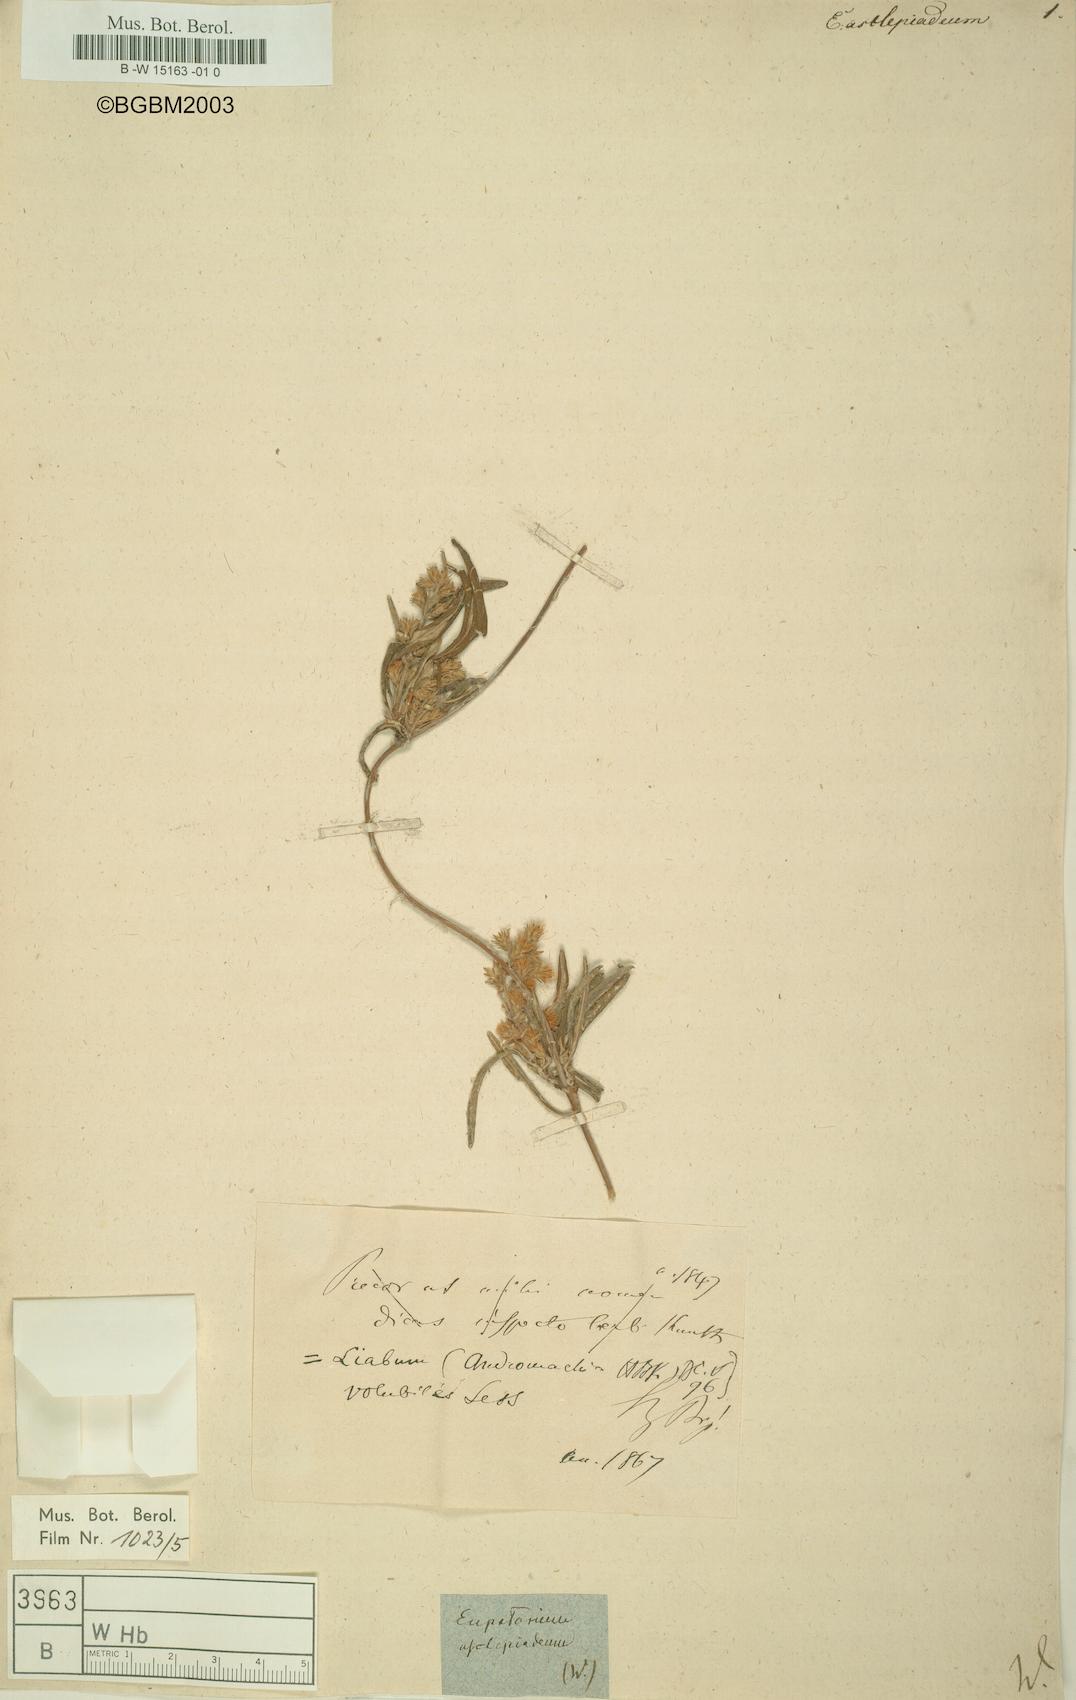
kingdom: Plantae
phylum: Tracheophyta
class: Magnoliopsida
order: Asterales
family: Asteraceae
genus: Campovassouria
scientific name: Campovassouria cruciata
